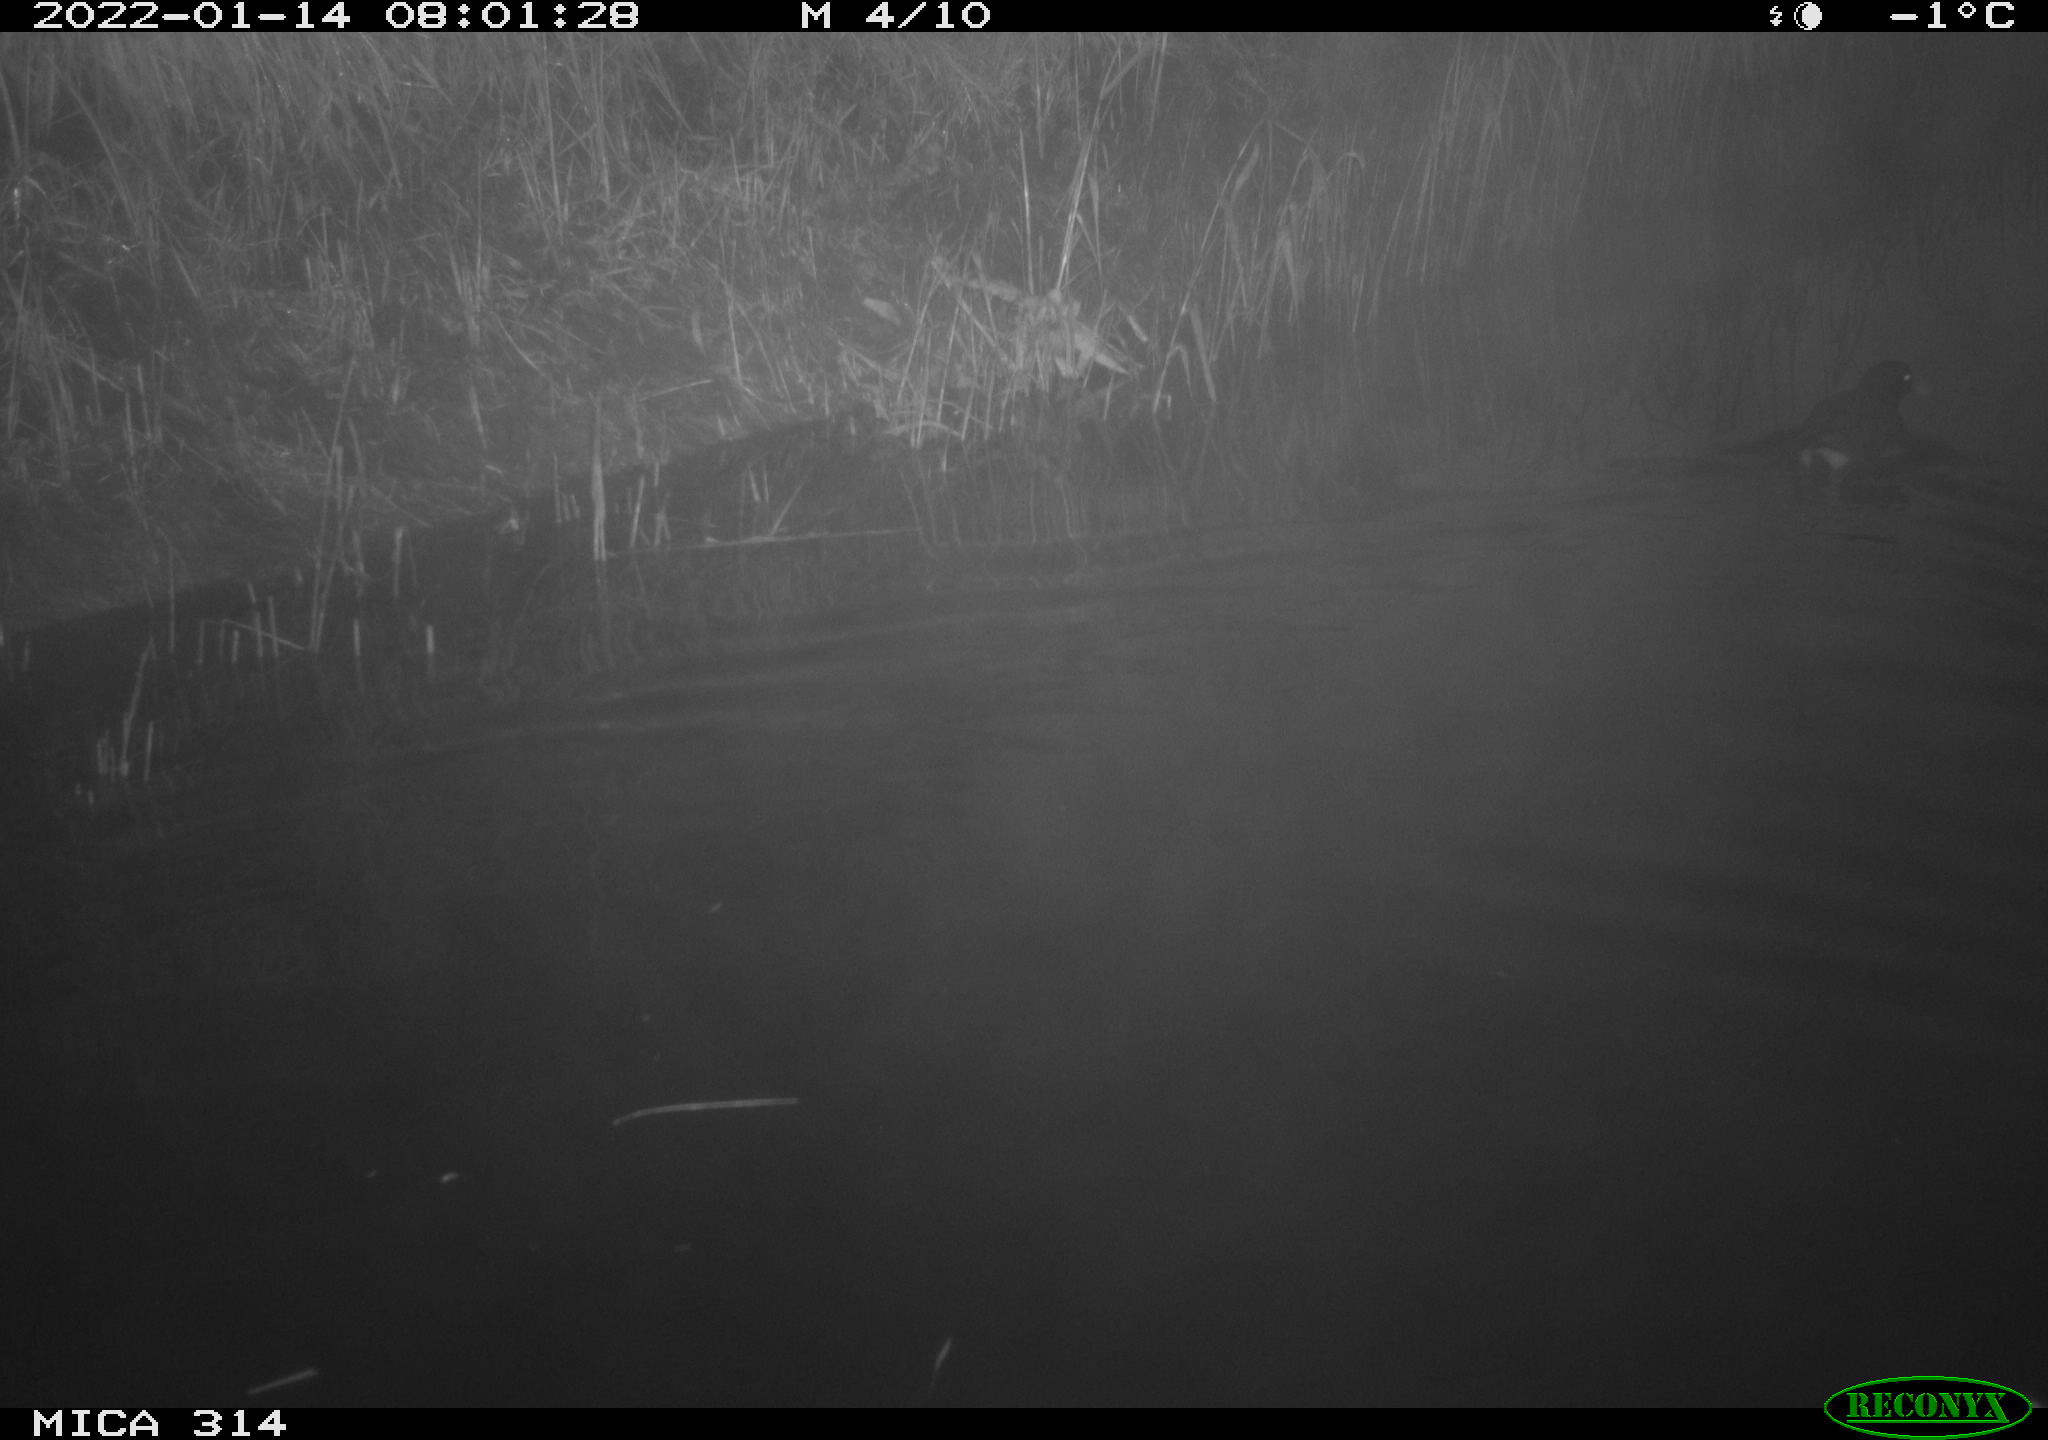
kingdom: Animalia
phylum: Chordata
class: Aves
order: Gruiformes
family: Rallidae
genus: Gallinula
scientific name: Gallinula chloropus
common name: Common moorhen
